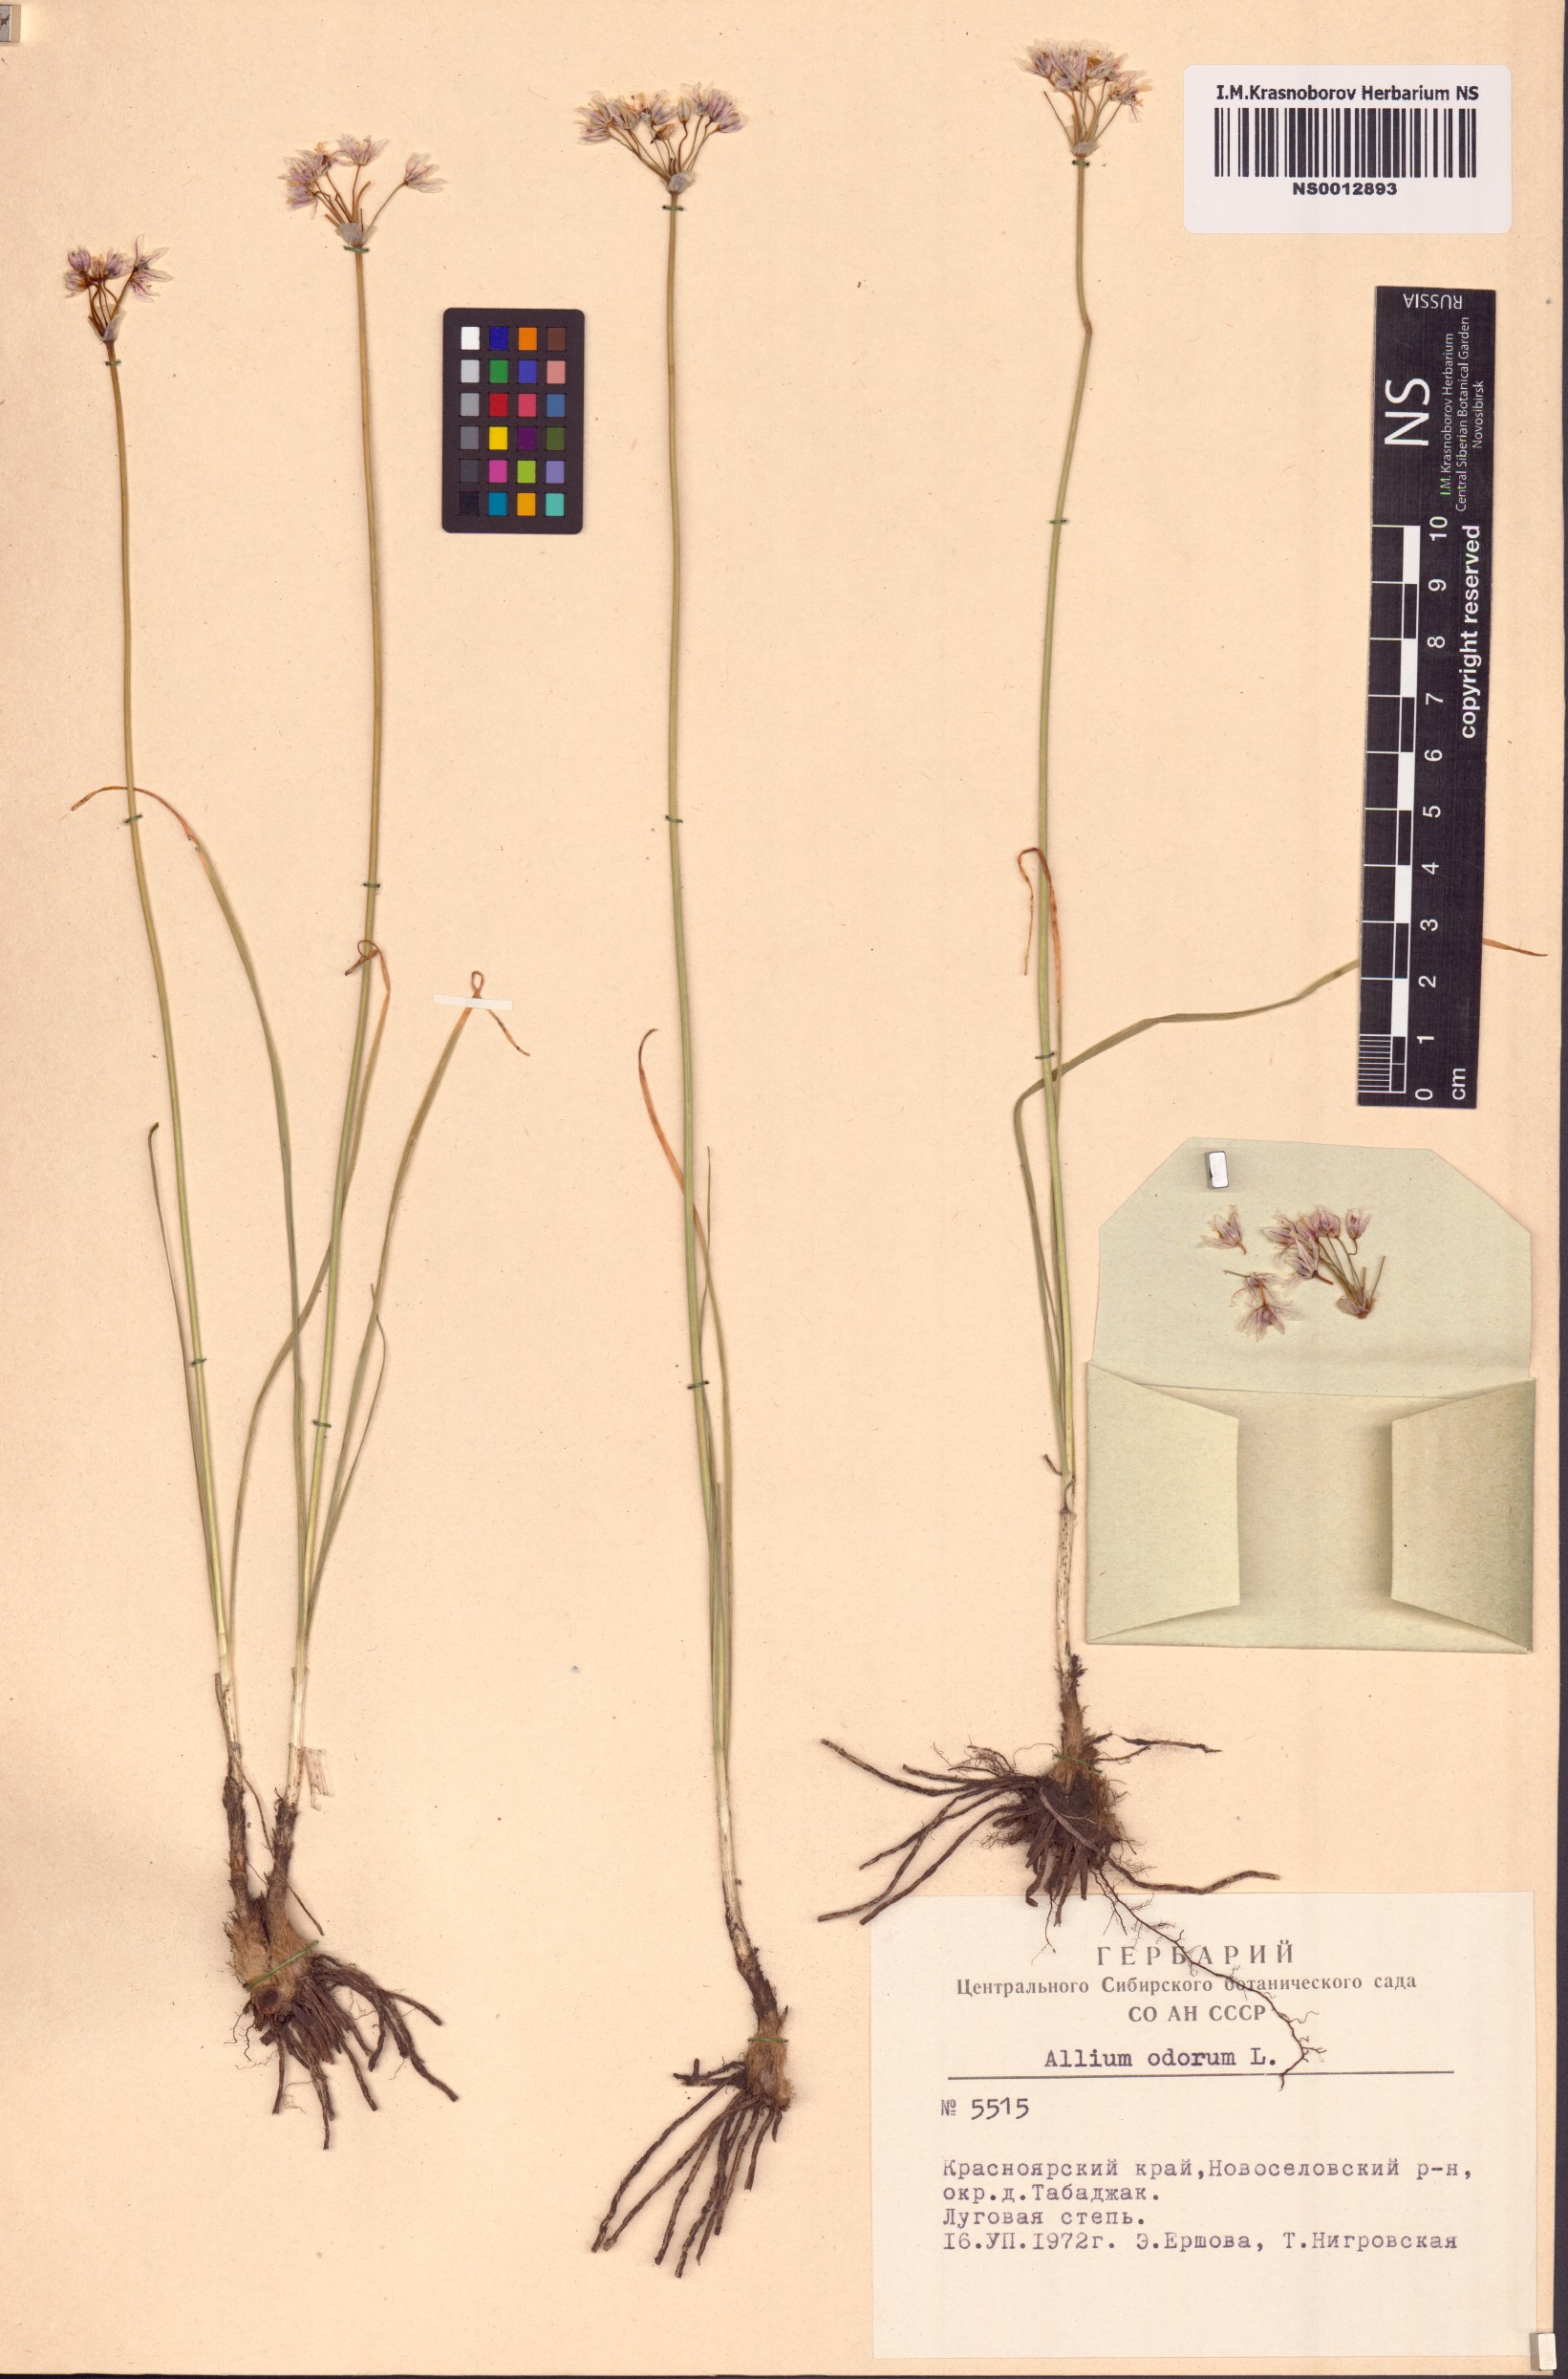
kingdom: Plantae
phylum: Tracheophyta
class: Liliopsida
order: Asparagales
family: Amaryllidaceae
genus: Allium
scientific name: Allium ramosum
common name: Fragrant garlic
